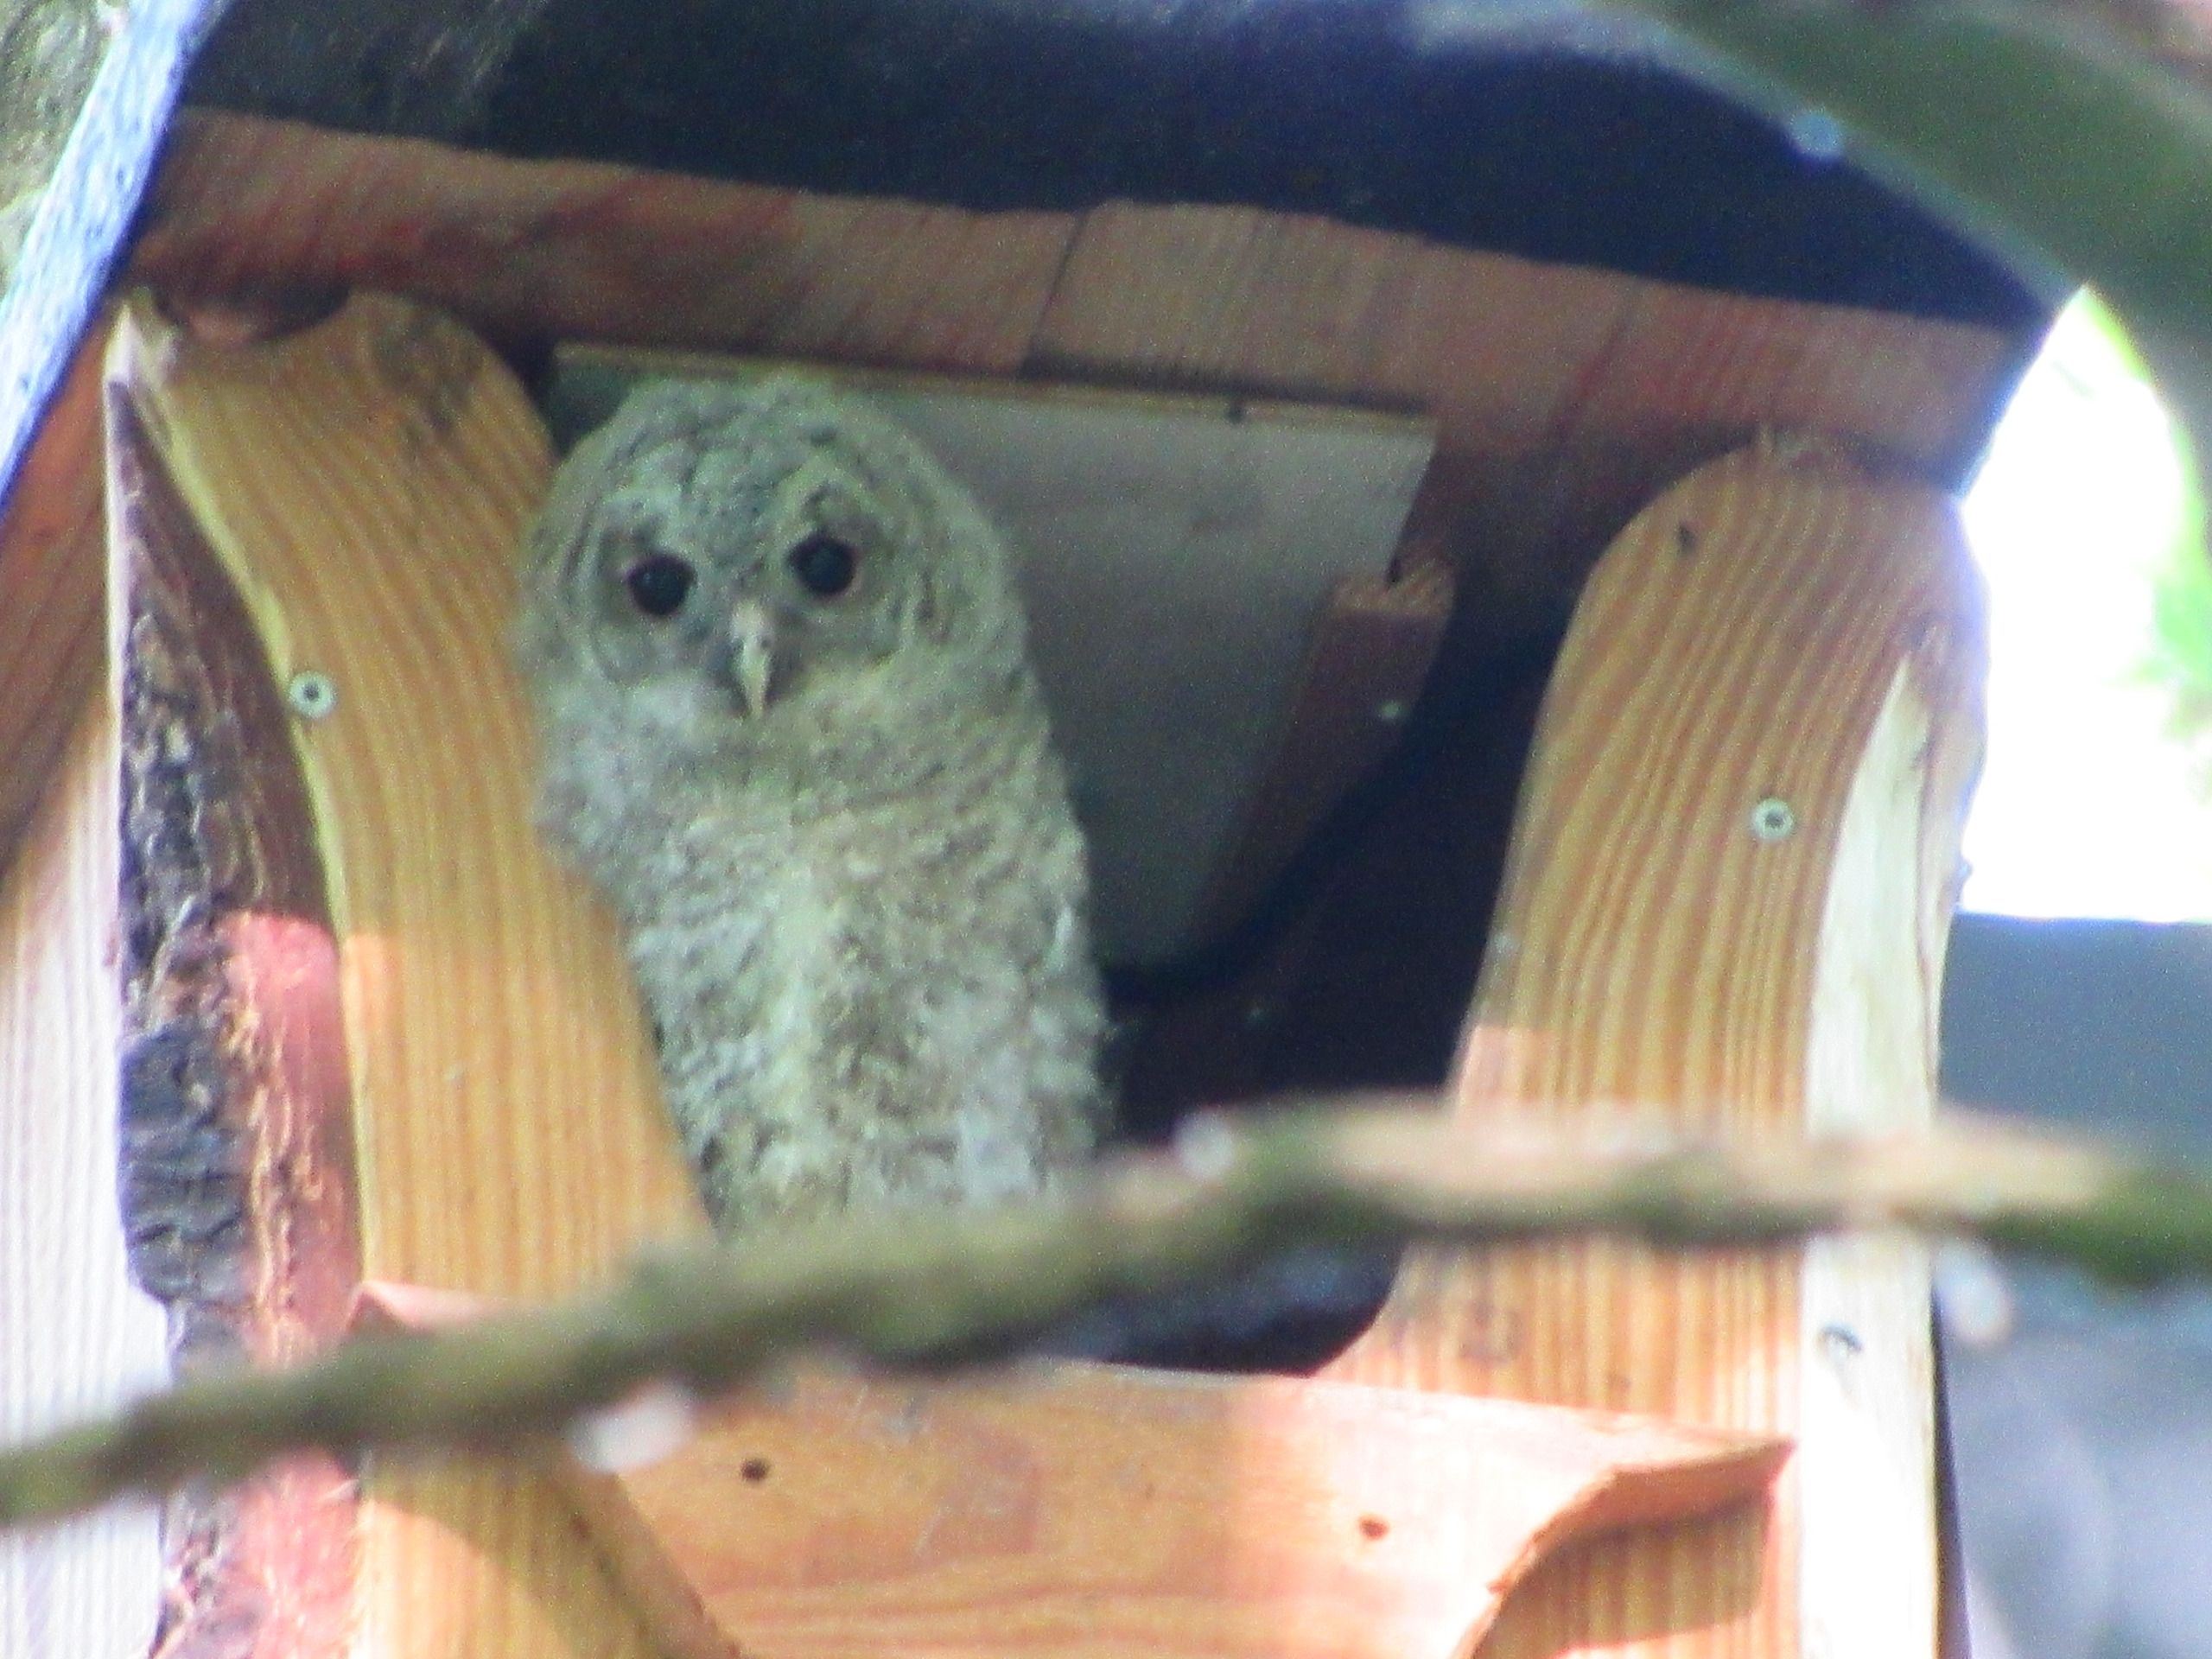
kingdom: Animalia
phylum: Chordata
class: Aves
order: Strigiformes
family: Strigidae
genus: Strix
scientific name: Strix aluco
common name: Natugle
